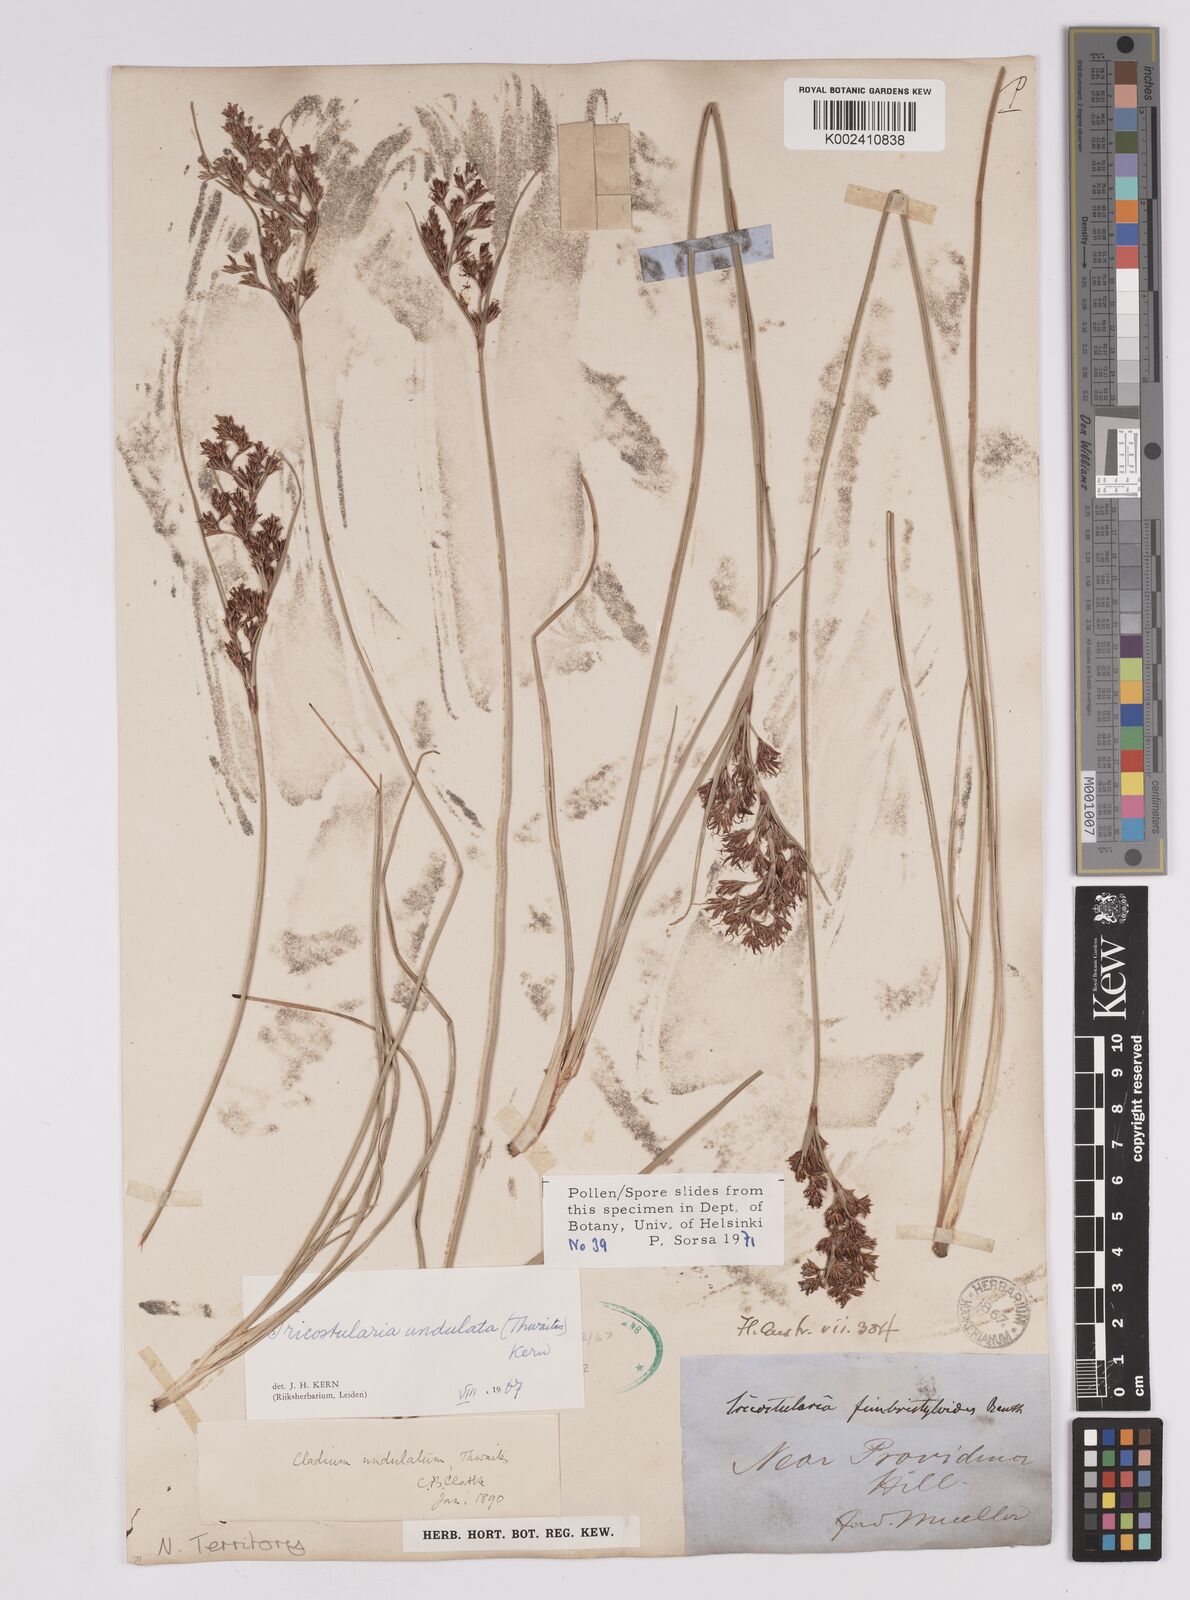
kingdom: Plantae
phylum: Tracheophyta
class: Liliopsida
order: Poales
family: Cyperaceae
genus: Anthelepis
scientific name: Anthelepis undulata
